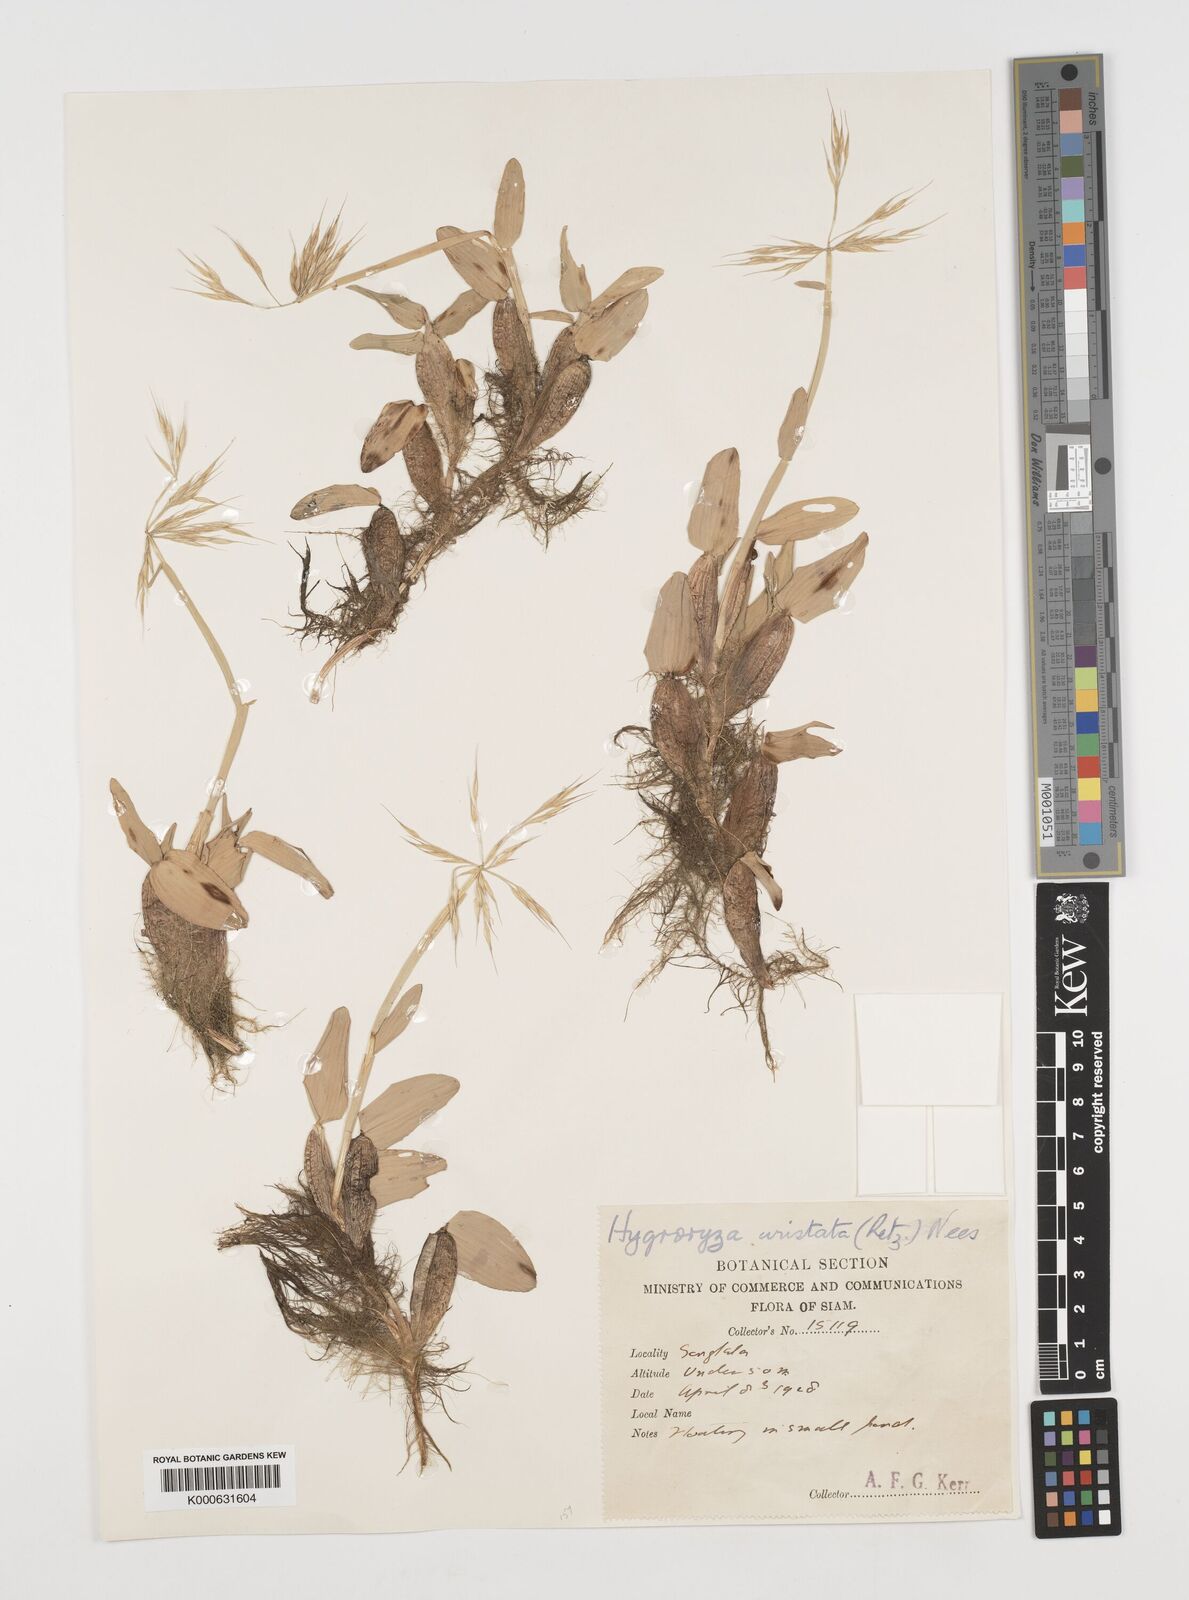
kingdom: Plantae
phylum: Tracheophyta
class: Liliopsida
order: Poales
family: Poaceae
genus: Hygroryza
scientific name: Hygroryza
